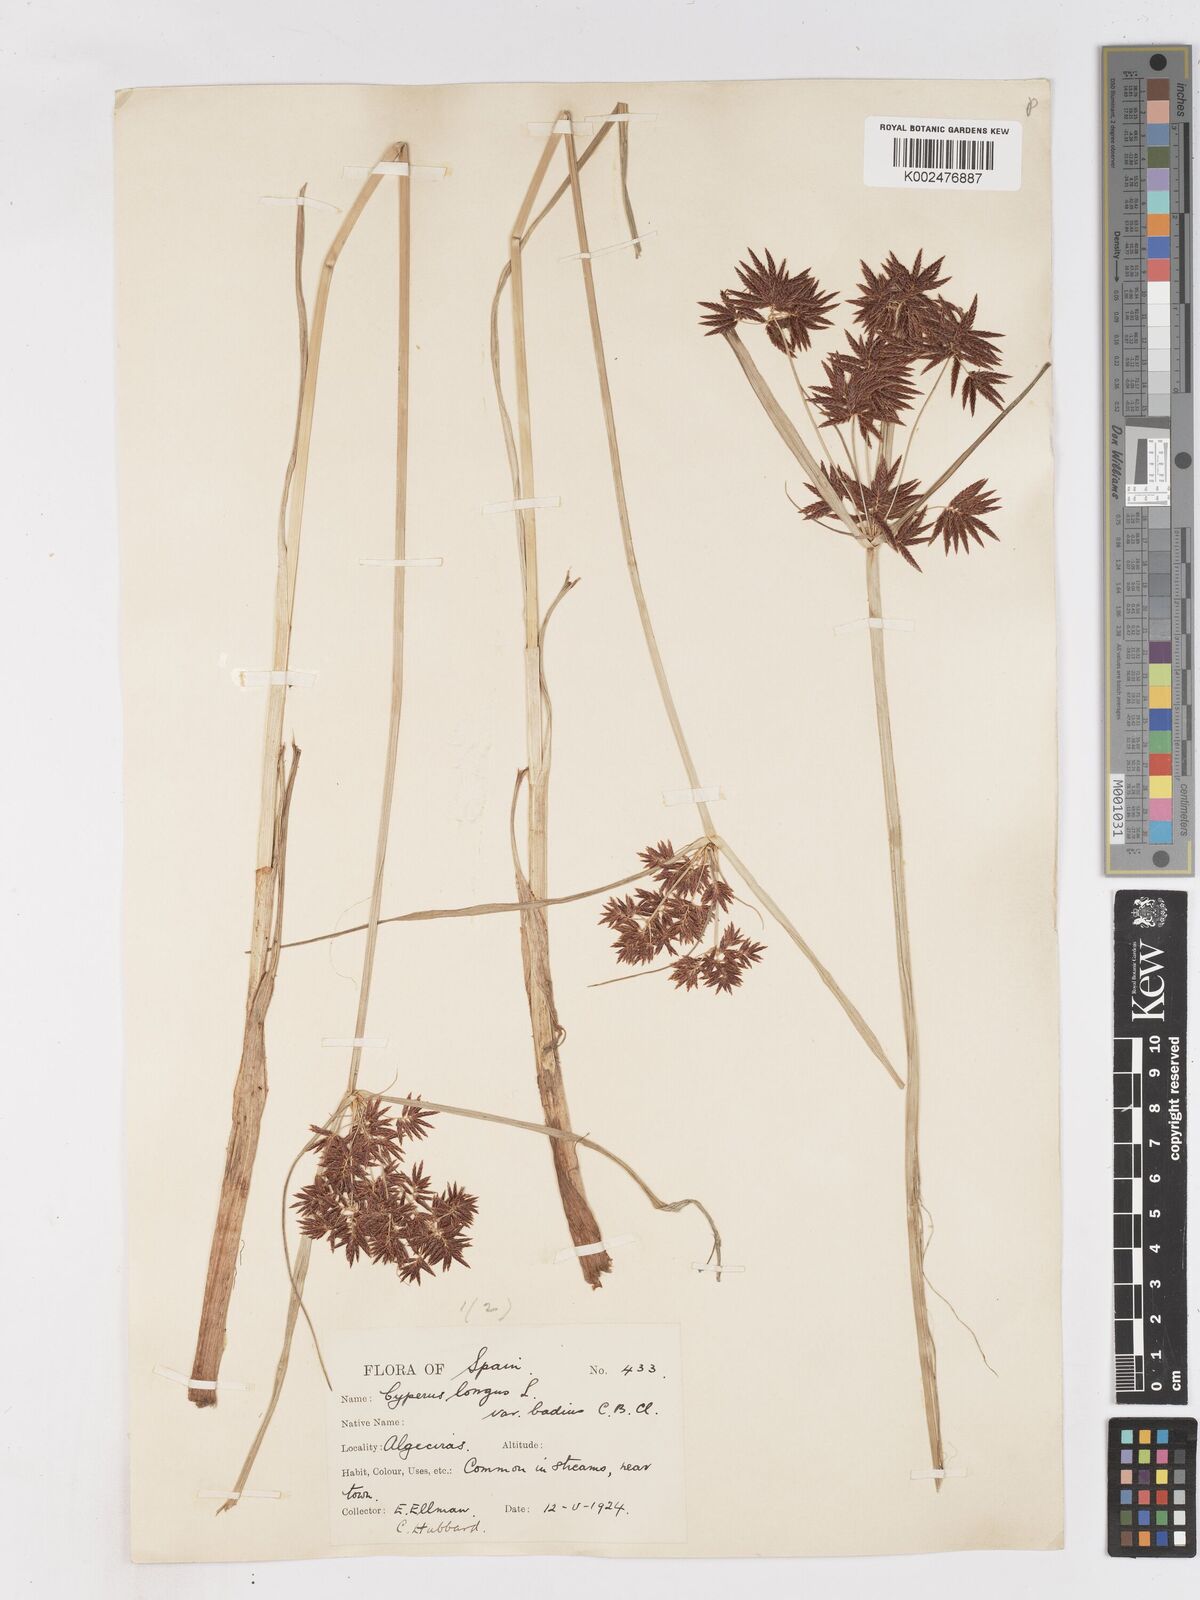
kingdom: Plantae
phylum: Tracheophyta
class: Liliopsida
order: Poales
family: Cyperaceae
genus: Cyperus
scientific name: Cyperus longus
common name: Galingale
